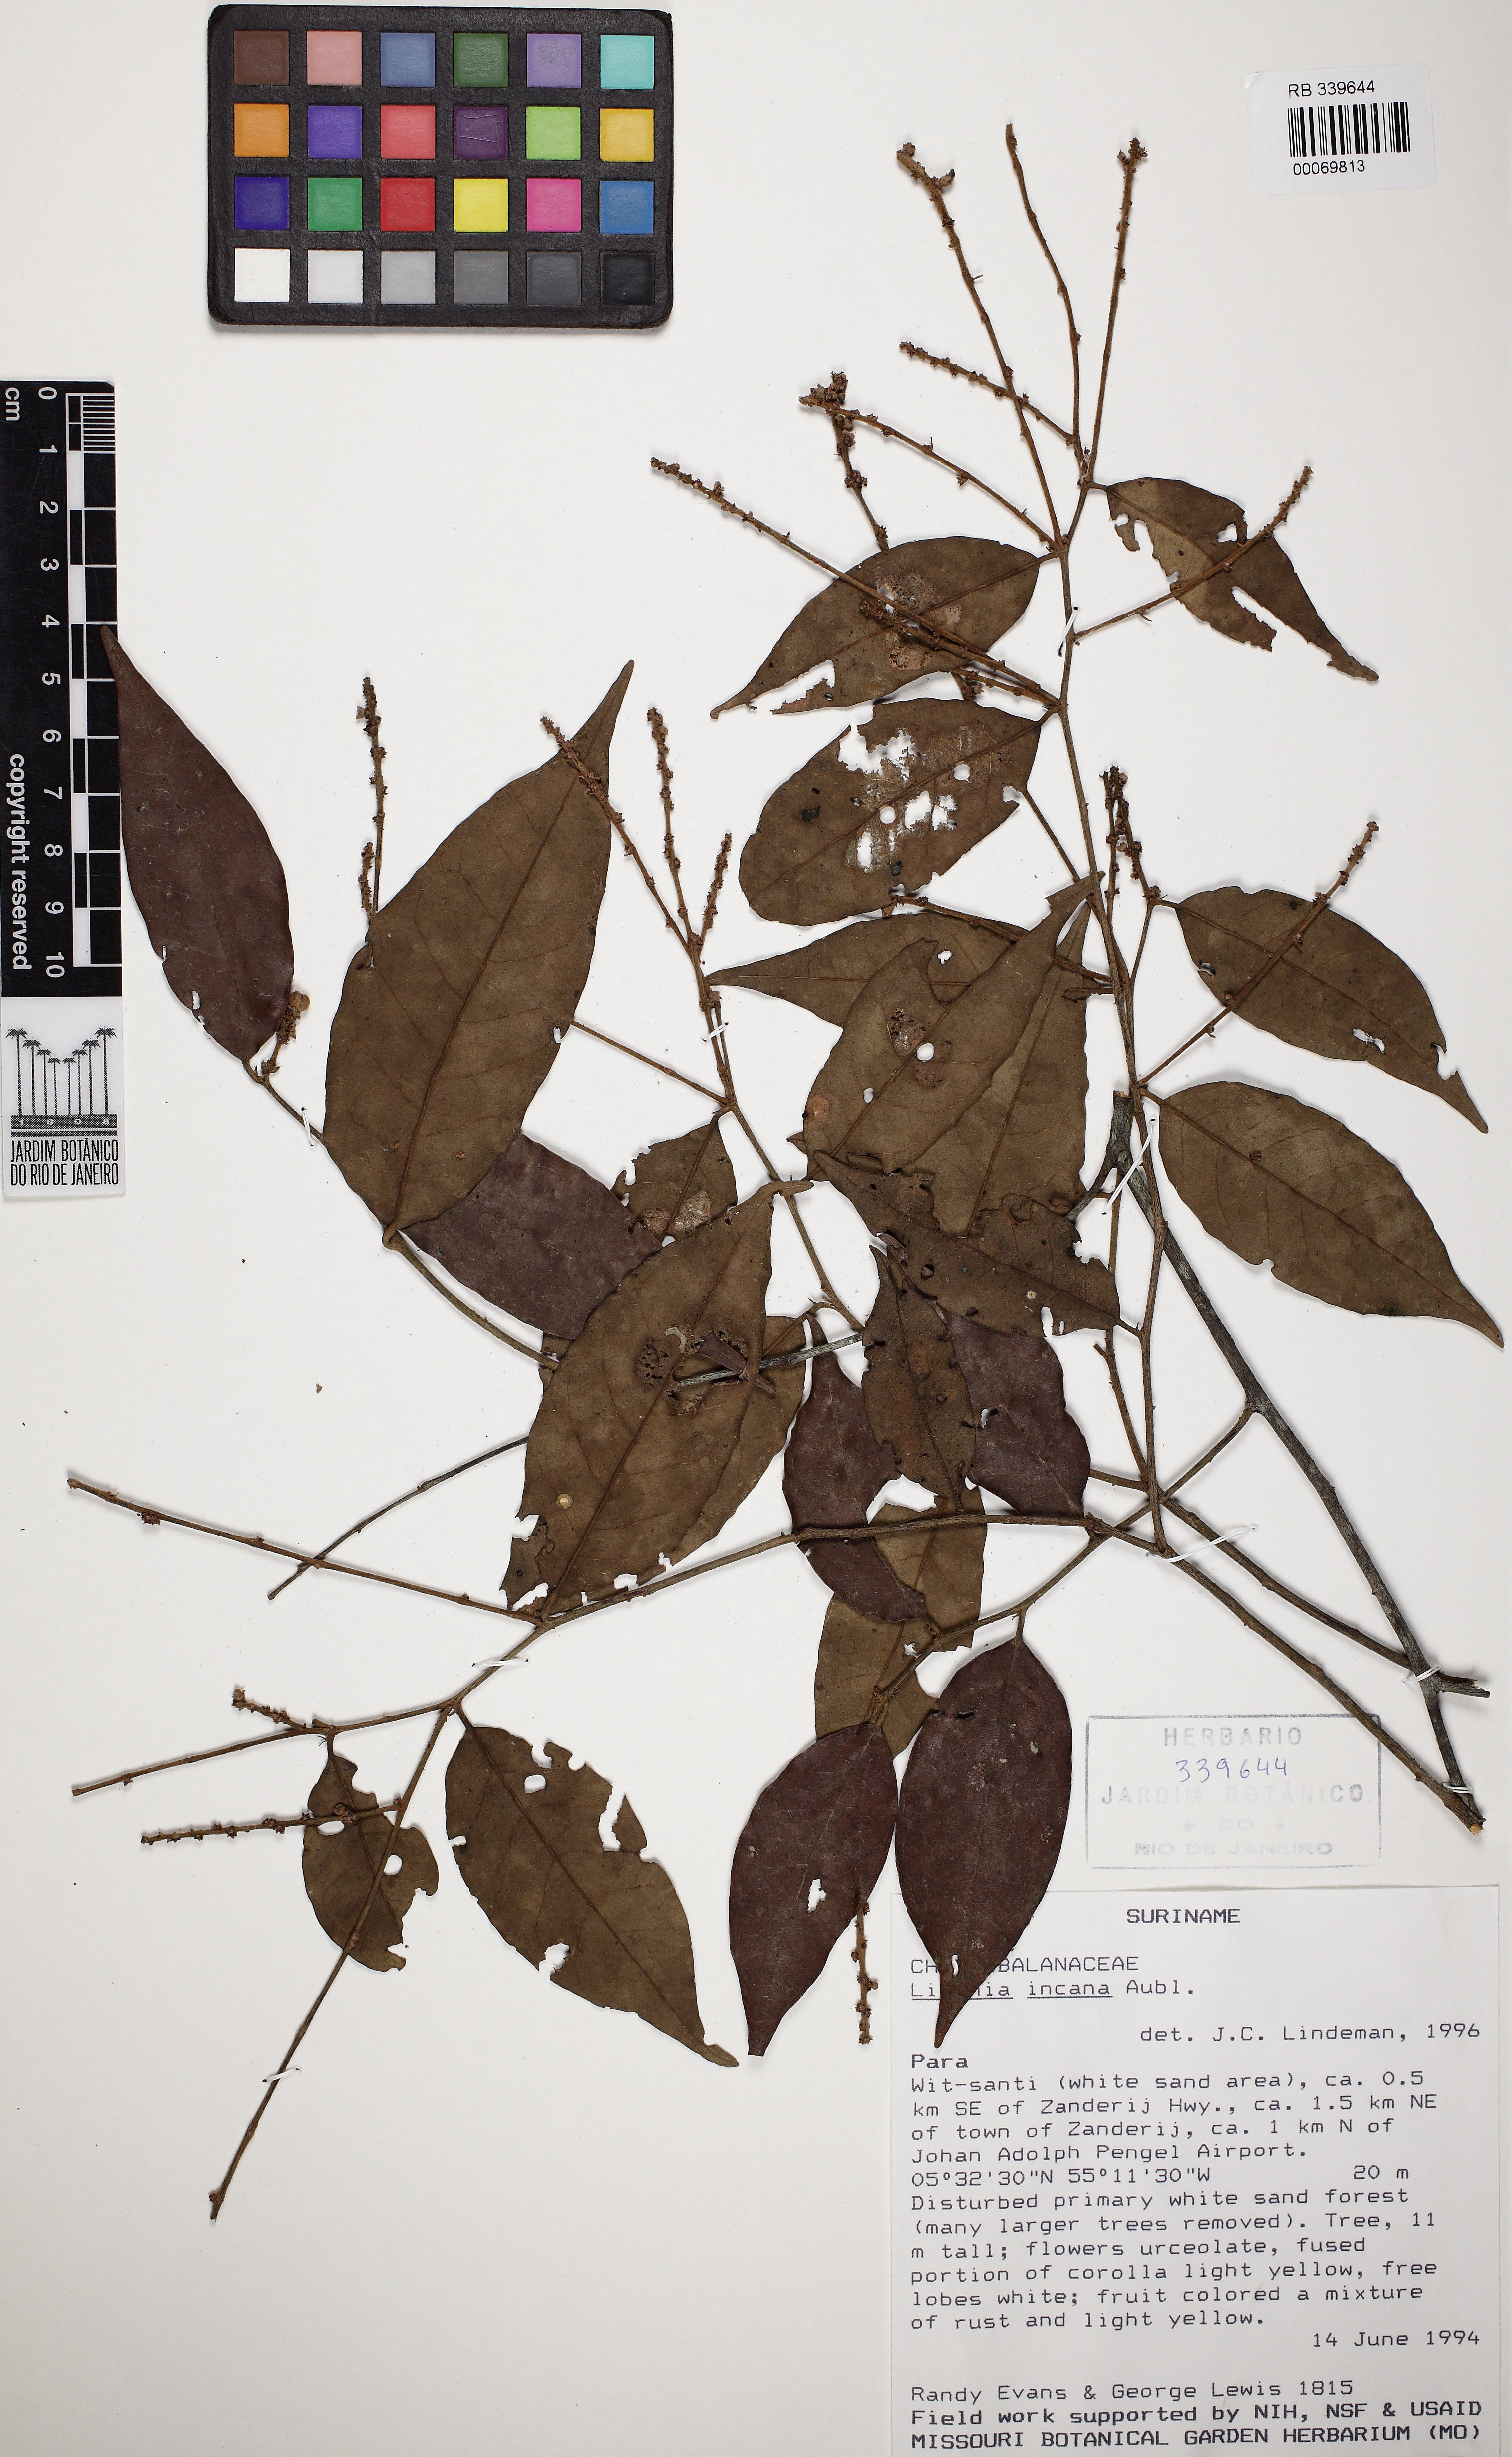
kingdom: Plantae
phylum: Tracheophyta
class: Magnoliopsida
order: Malpighiales
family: Chrysobalanaceae
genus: Licania
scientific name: Licania incana
